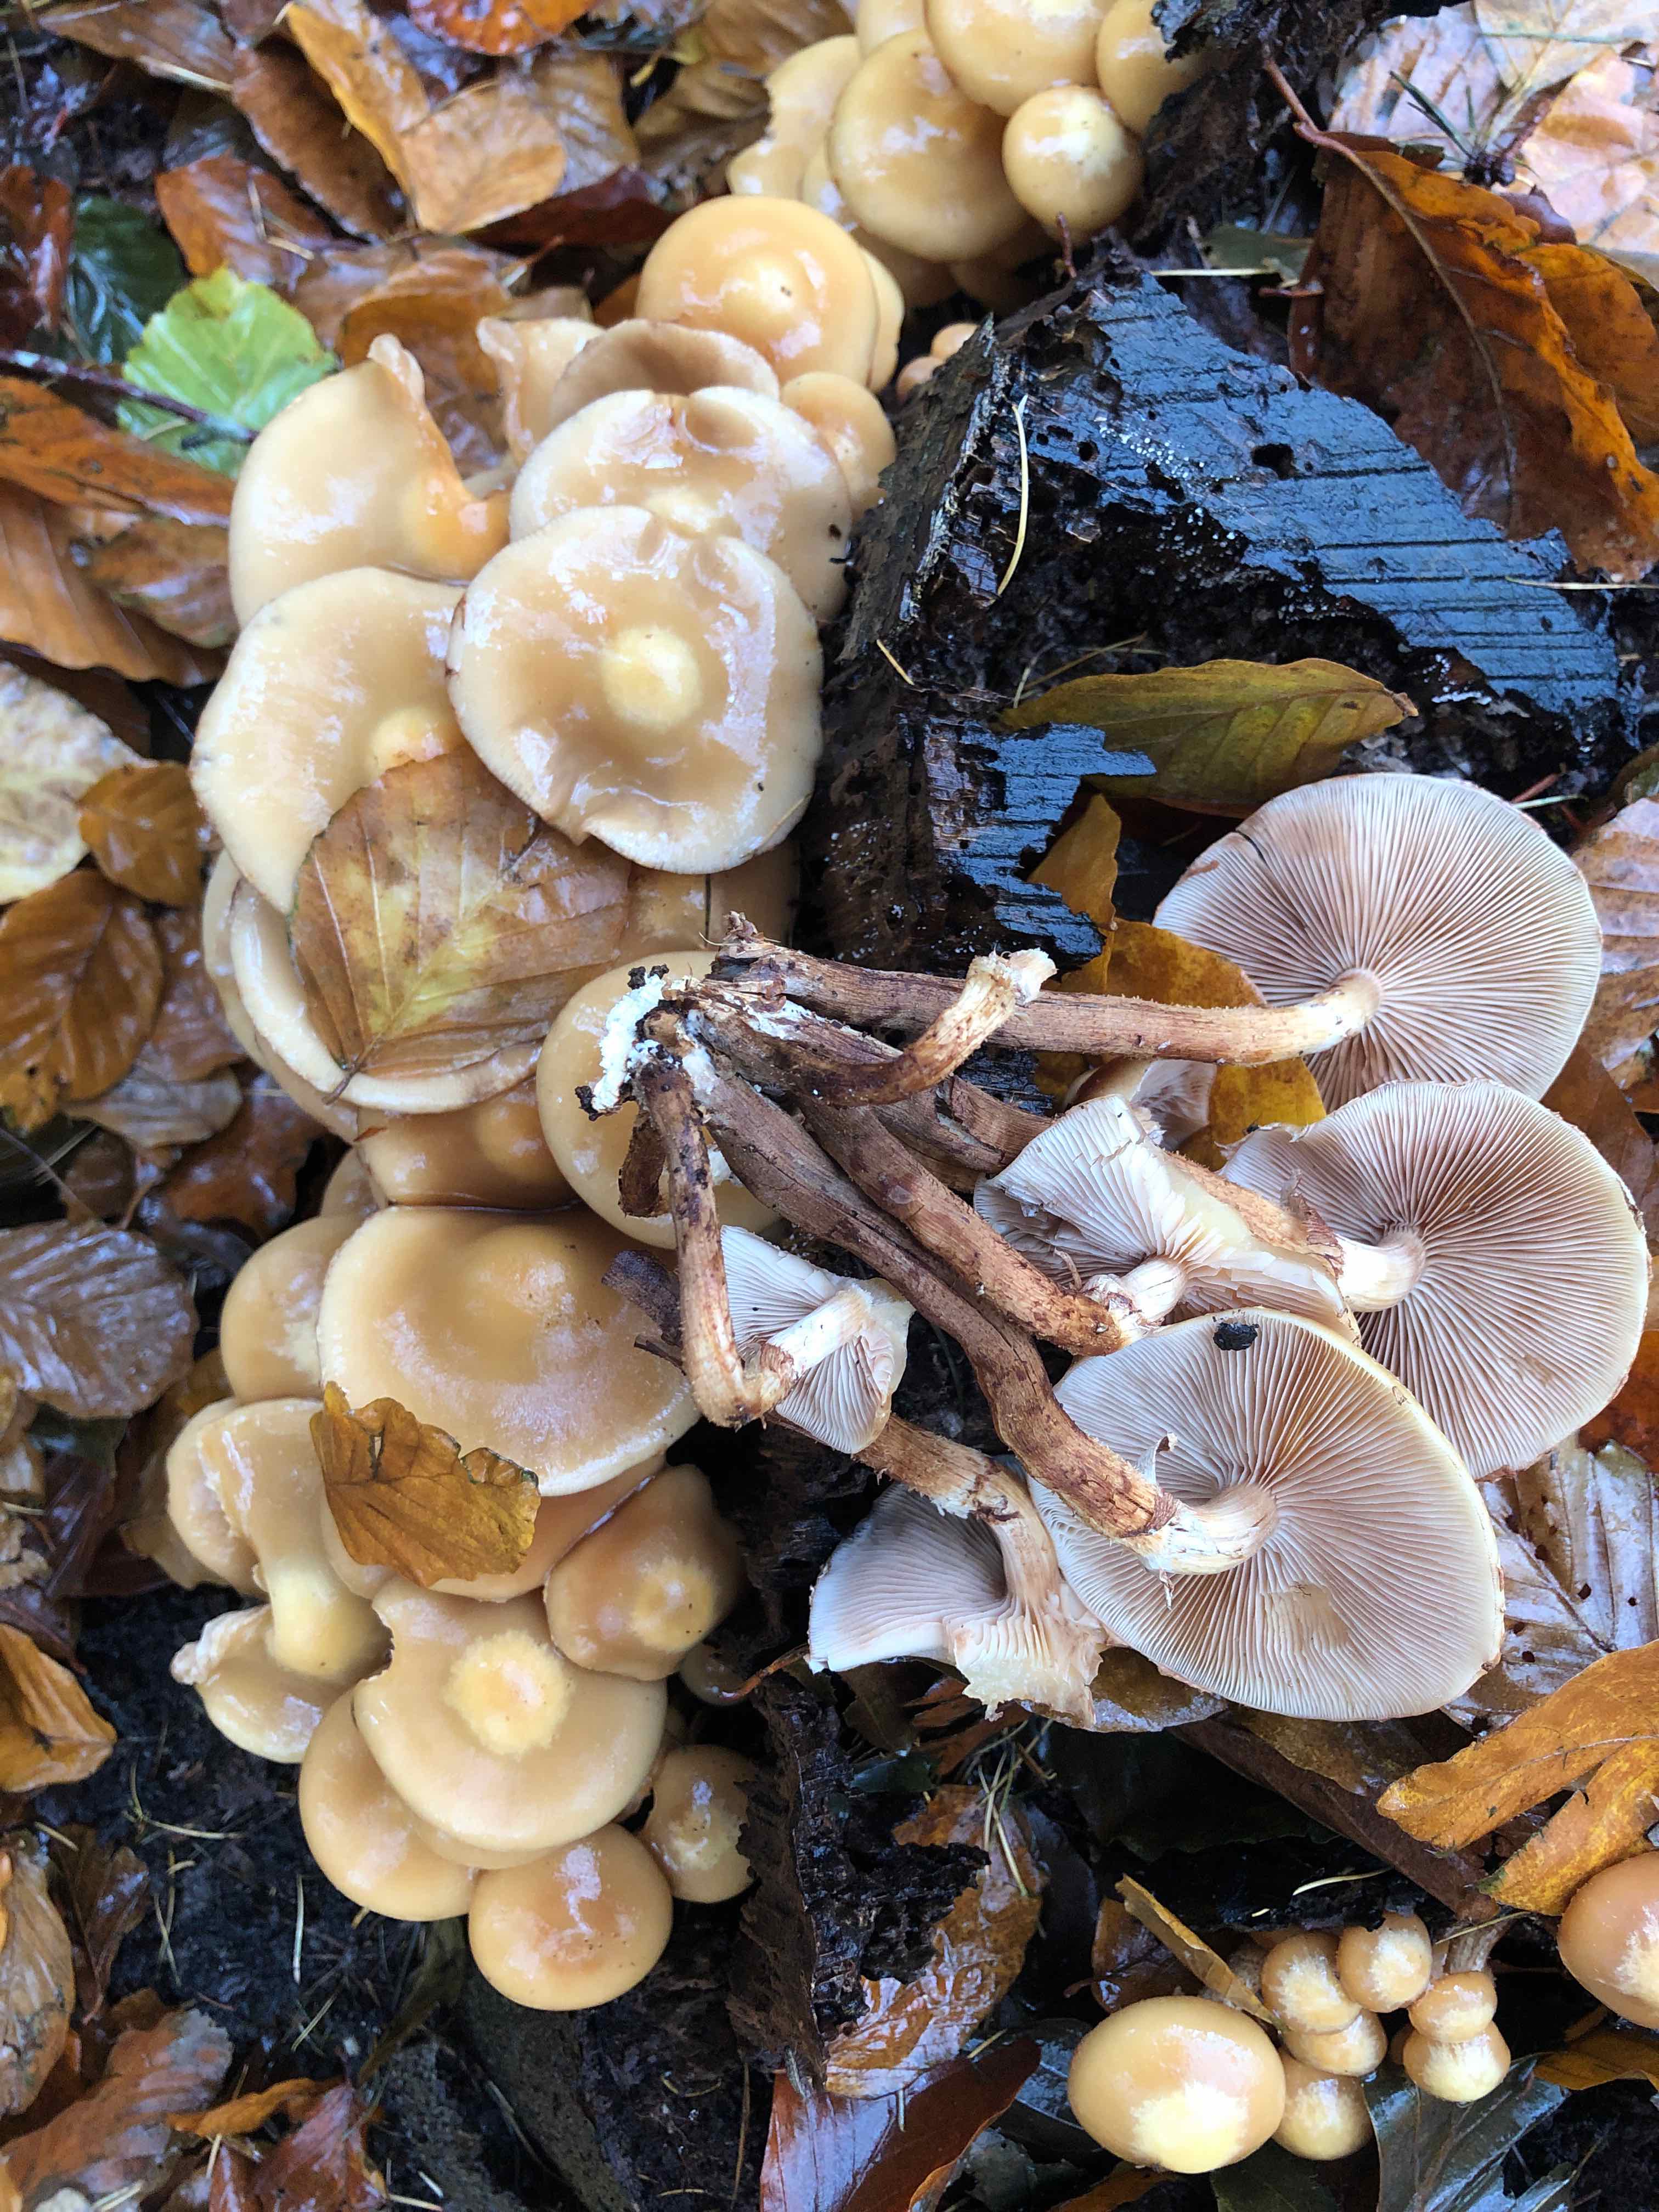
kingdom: Fungi
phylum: Basidiomycota
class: Agaricomycetes
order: Agaricales
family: Strophariaceae
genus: Kuehneromyces
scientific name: Kuehneromyces mutabilis
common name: foranderlig skælhat
